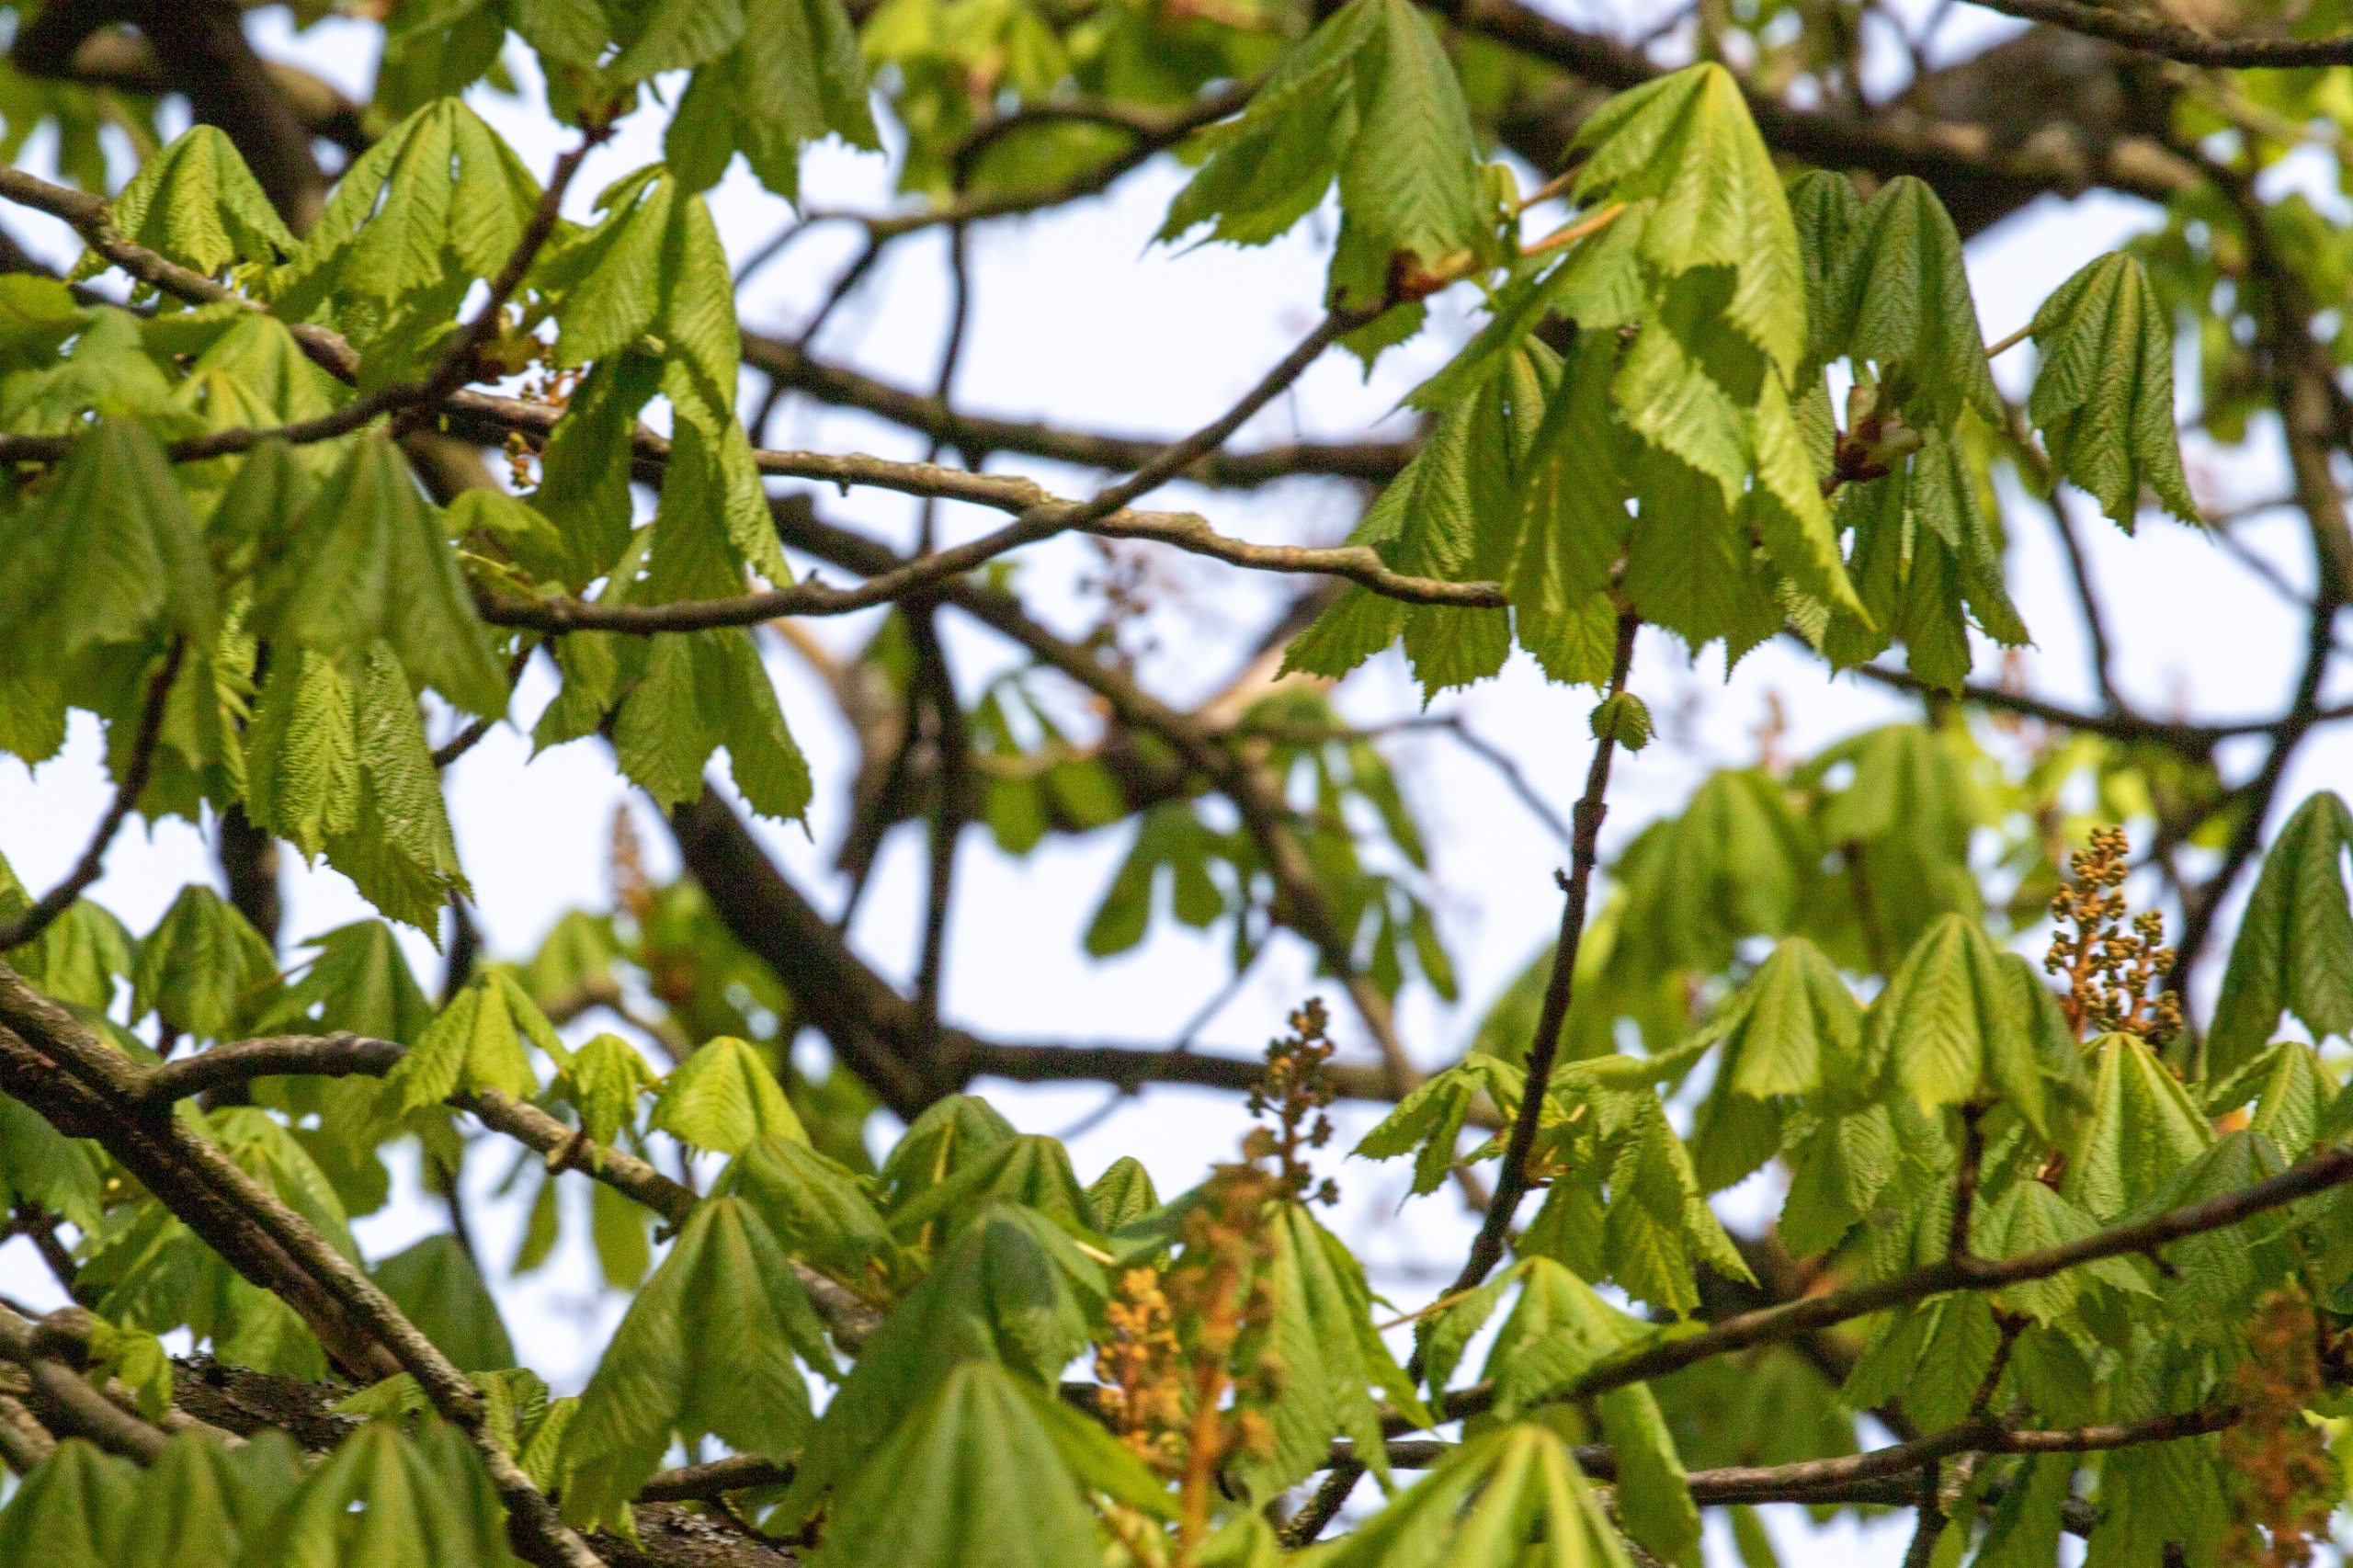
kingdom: Plantae
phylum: Tracheophyta
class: Magnoliopsida
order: Sapindales
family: Sapindaceae
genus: Aesculus
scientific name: Aesculus hippocastanum
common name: Hestekastanie
